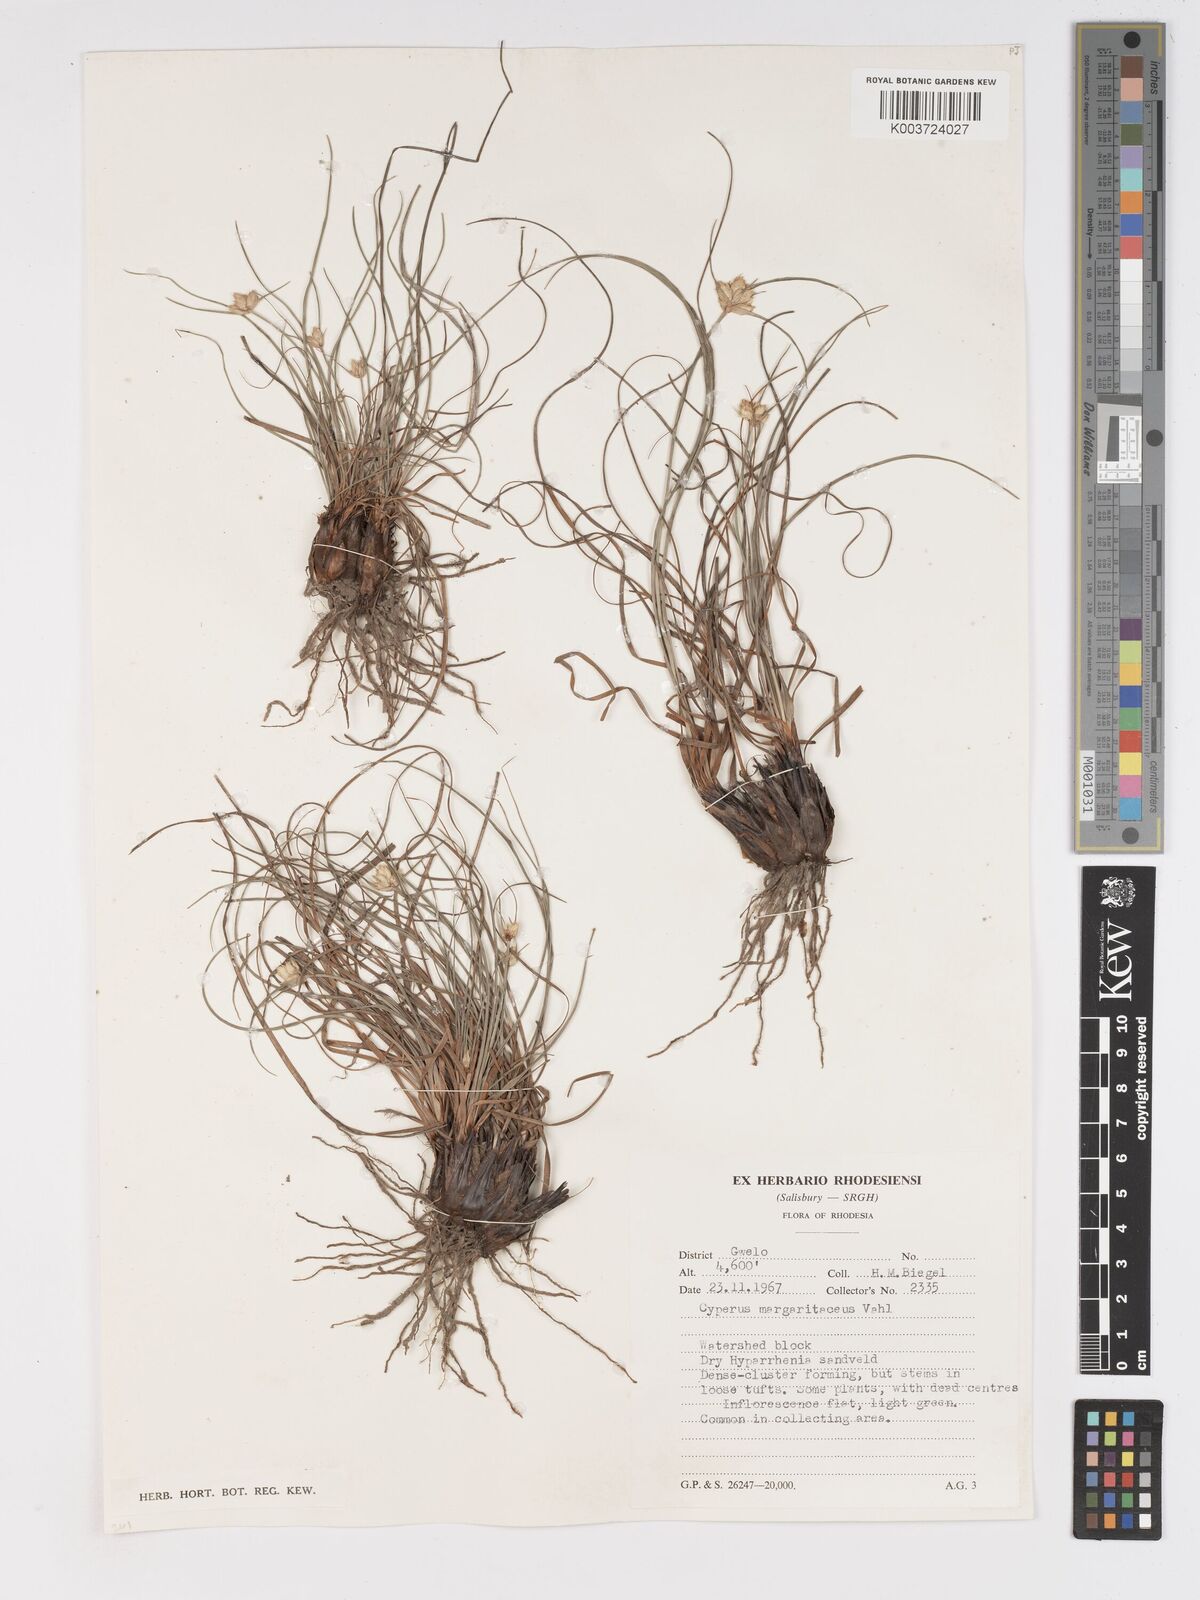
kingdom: Plantae
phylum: Tracheophyta
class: Liliopsida
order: Poales
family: Cyperaceae
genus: Cyperus
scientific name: Cyperus niveus
